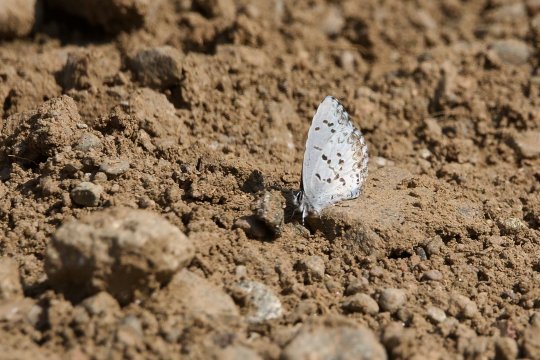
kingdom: Animalia
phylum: Arthropoda
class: Insecta
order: Lepidoptera
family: Lycaenidae
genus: Celastrina
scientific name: Celastrina lucia
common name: Northern Spring Azure
